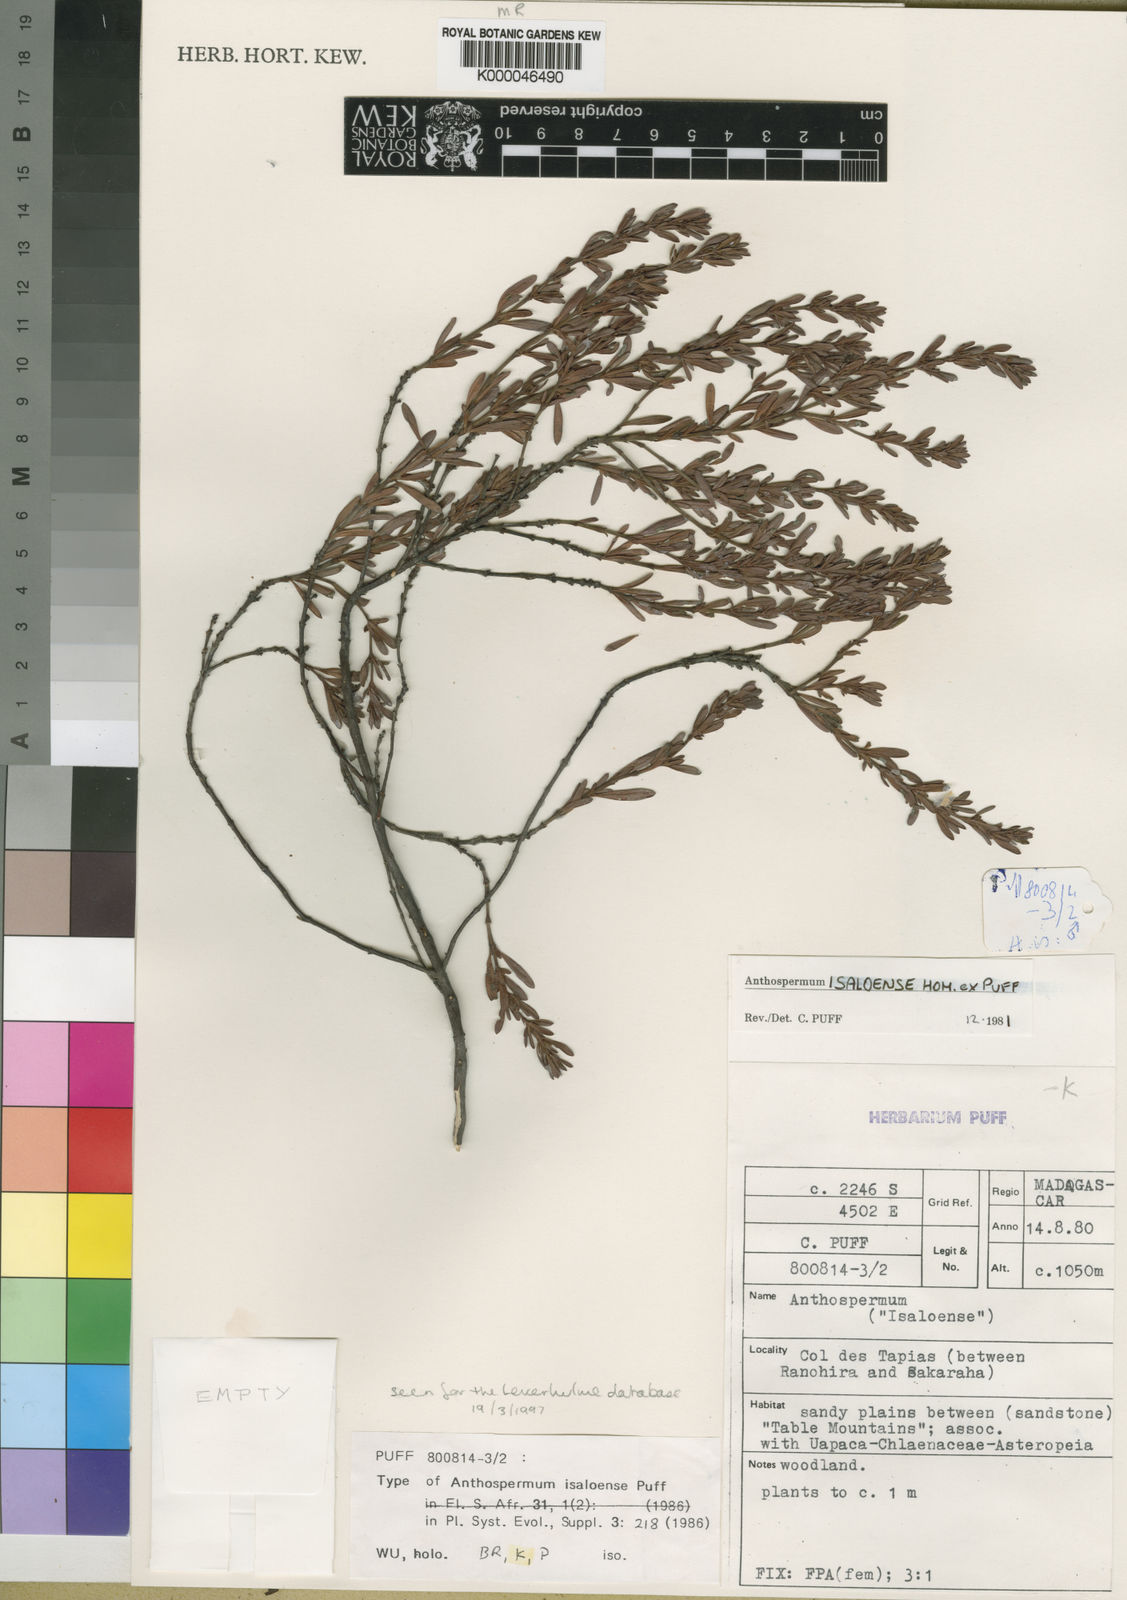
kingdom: Plantae
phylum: Tracheophyta
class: Magnoliopsida
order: Gentianales
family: Rubiaceae
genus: Anthospermum
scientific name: Anthospermum isaloense
